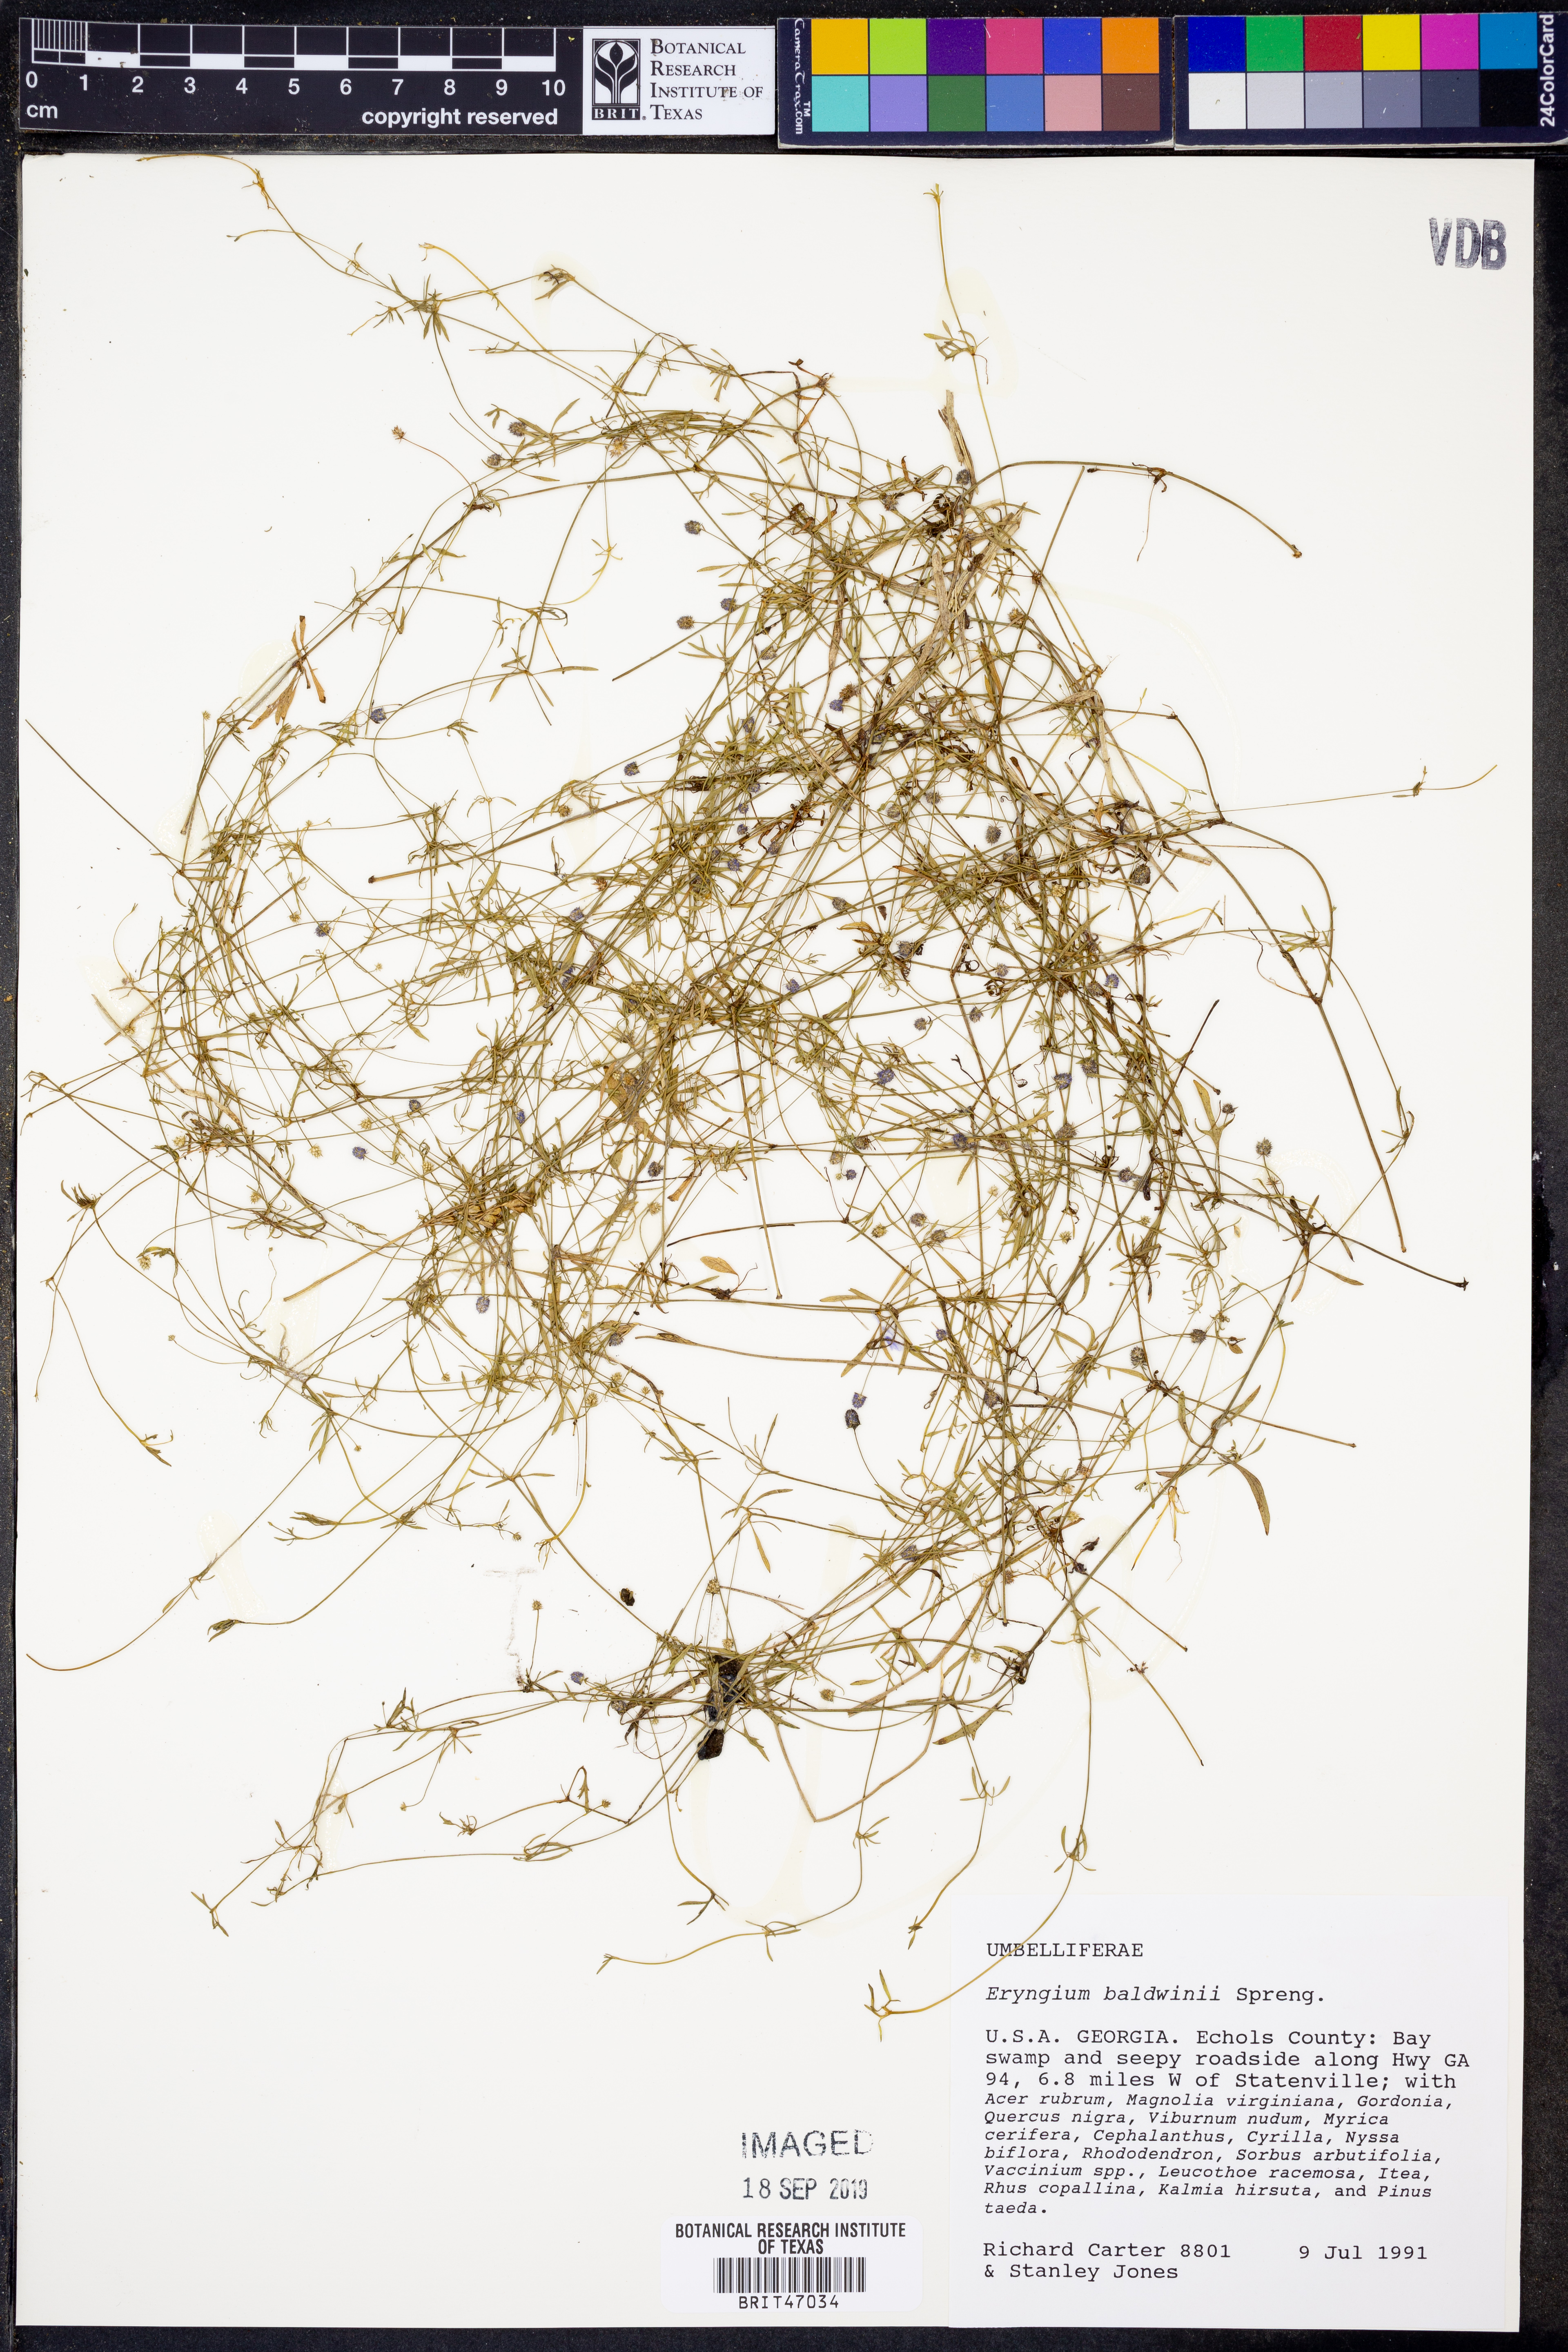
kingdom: Plantae
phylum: Tracheophyta
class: Magnoliopsida
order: Apiales
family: Apiaceae
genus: Eryngium
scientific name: Eryngium baldwinii
